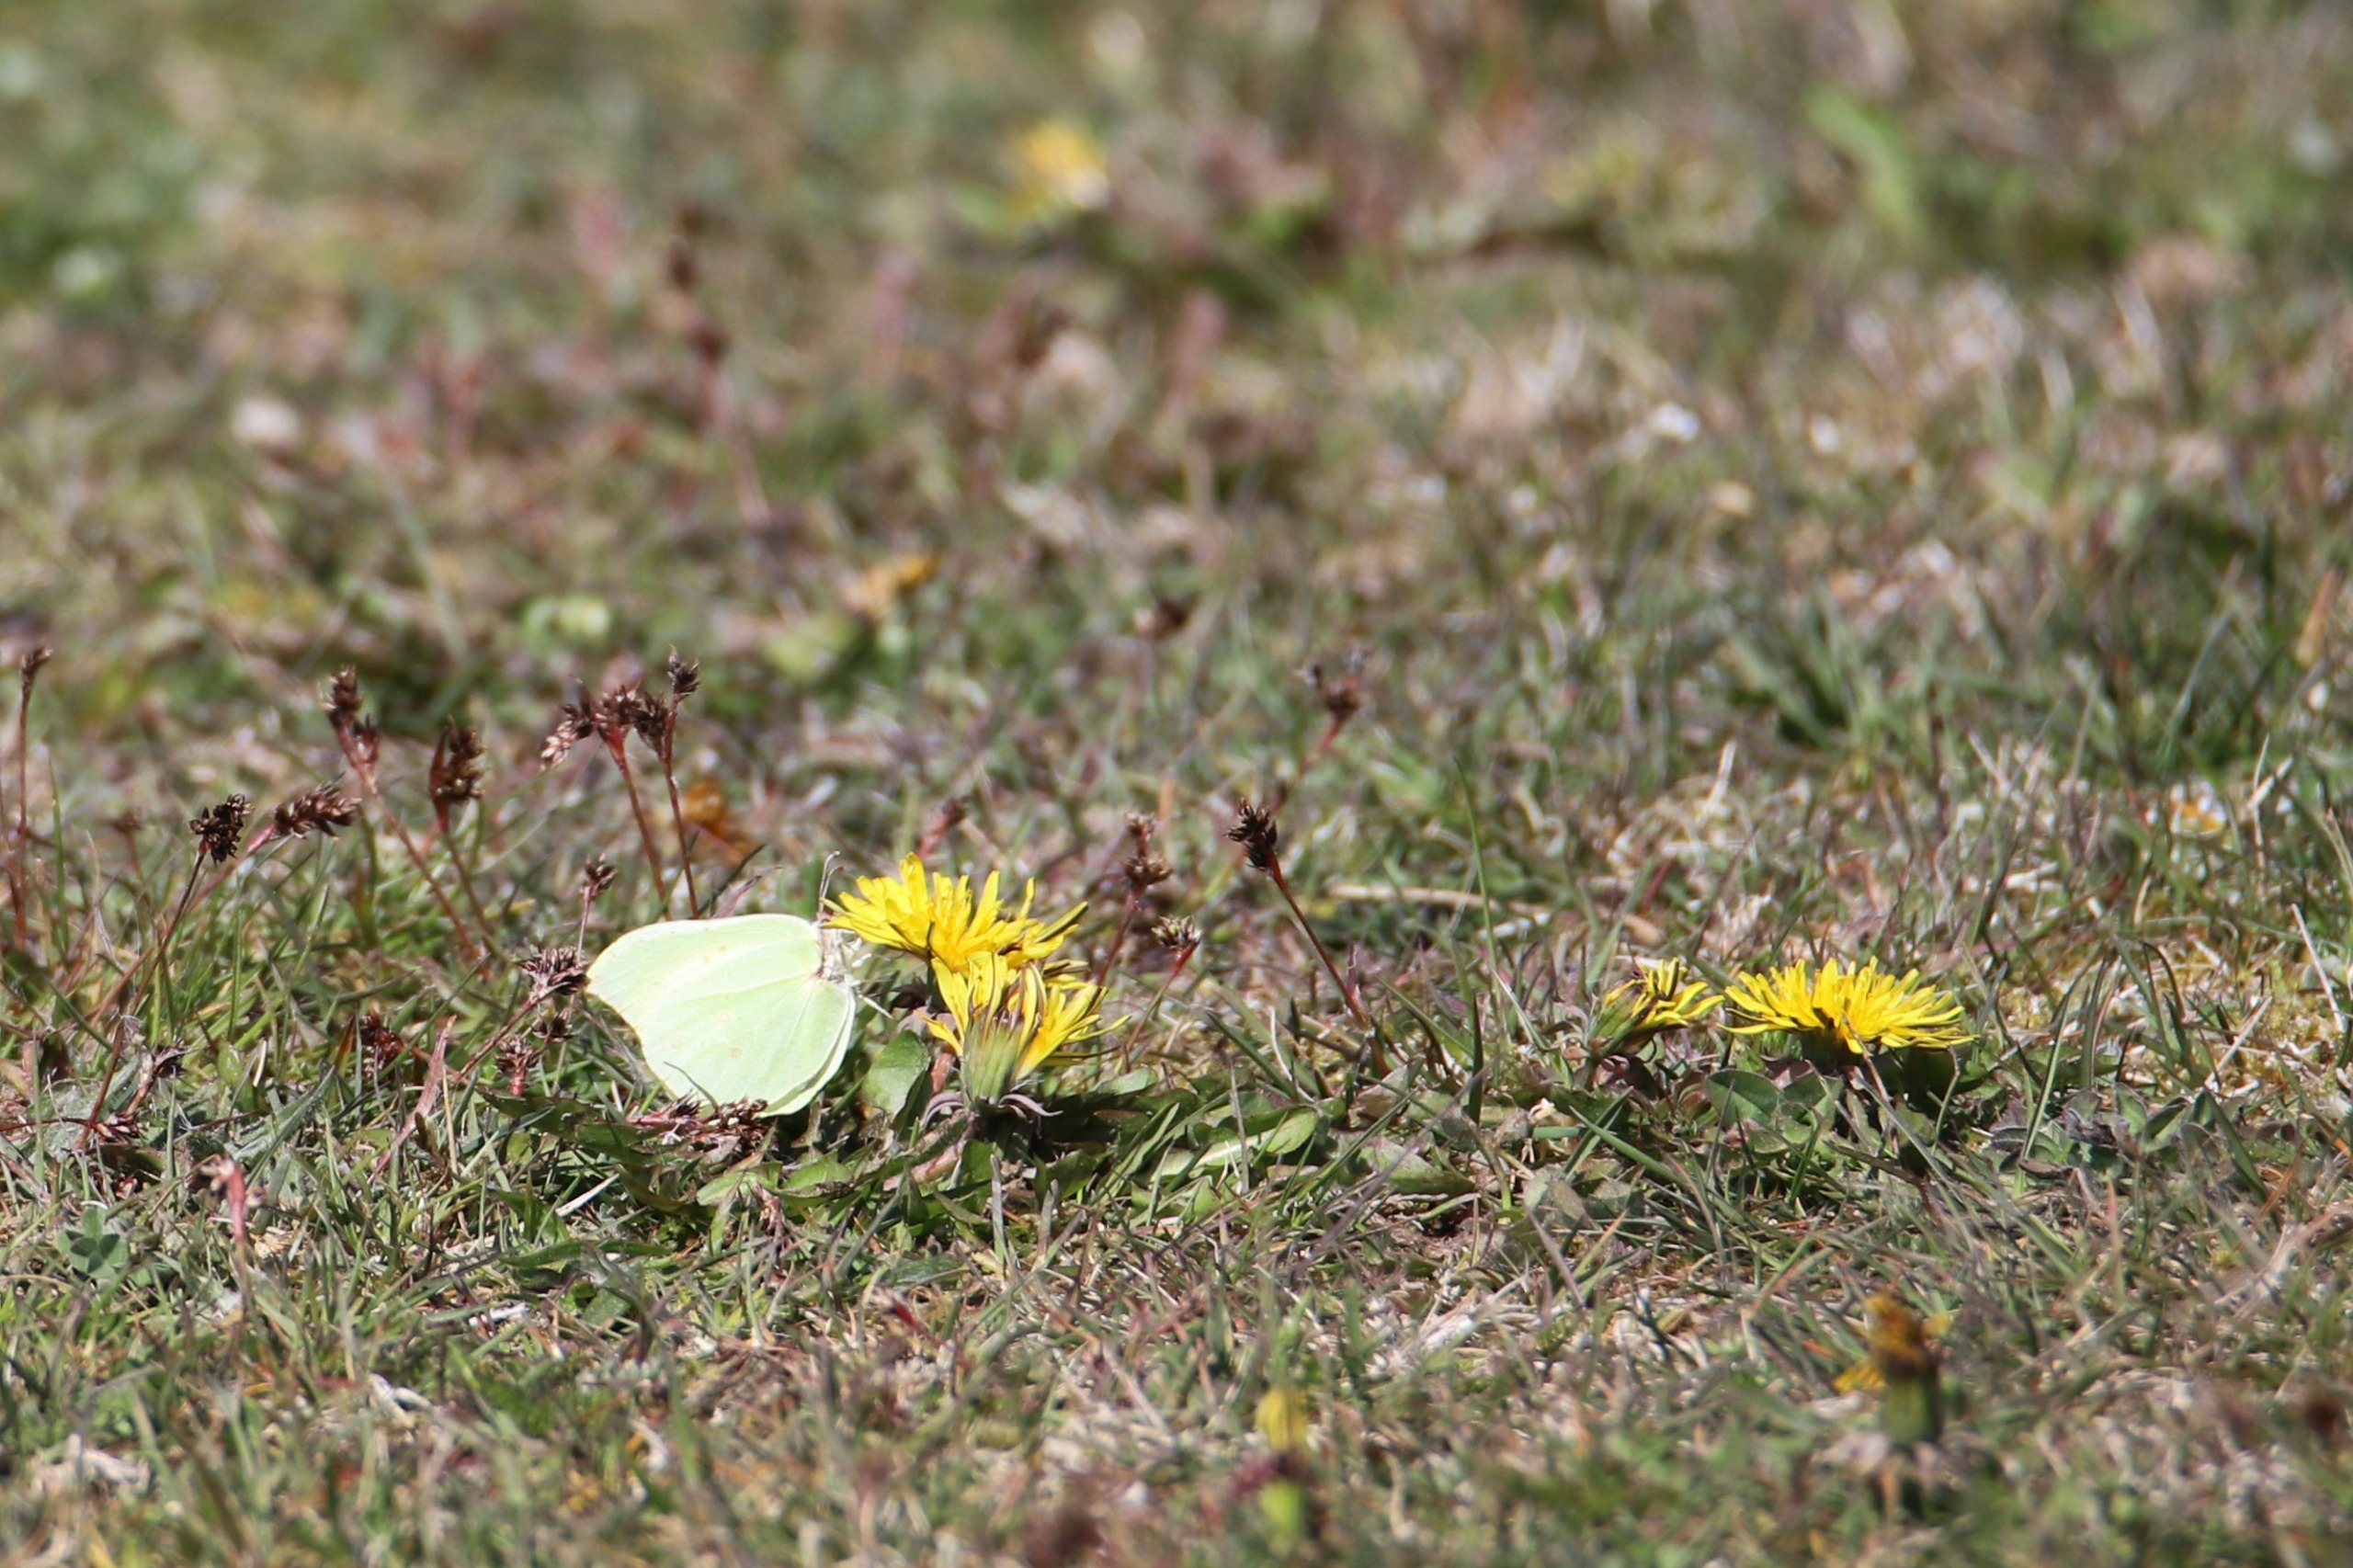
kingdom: Animalia
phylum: Arthropoda
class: Insecta
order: Lepidoptera
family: Pieridae
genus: Gonepteryx
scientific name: Gonepteryx rhamni
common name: Citronsommerfugl
